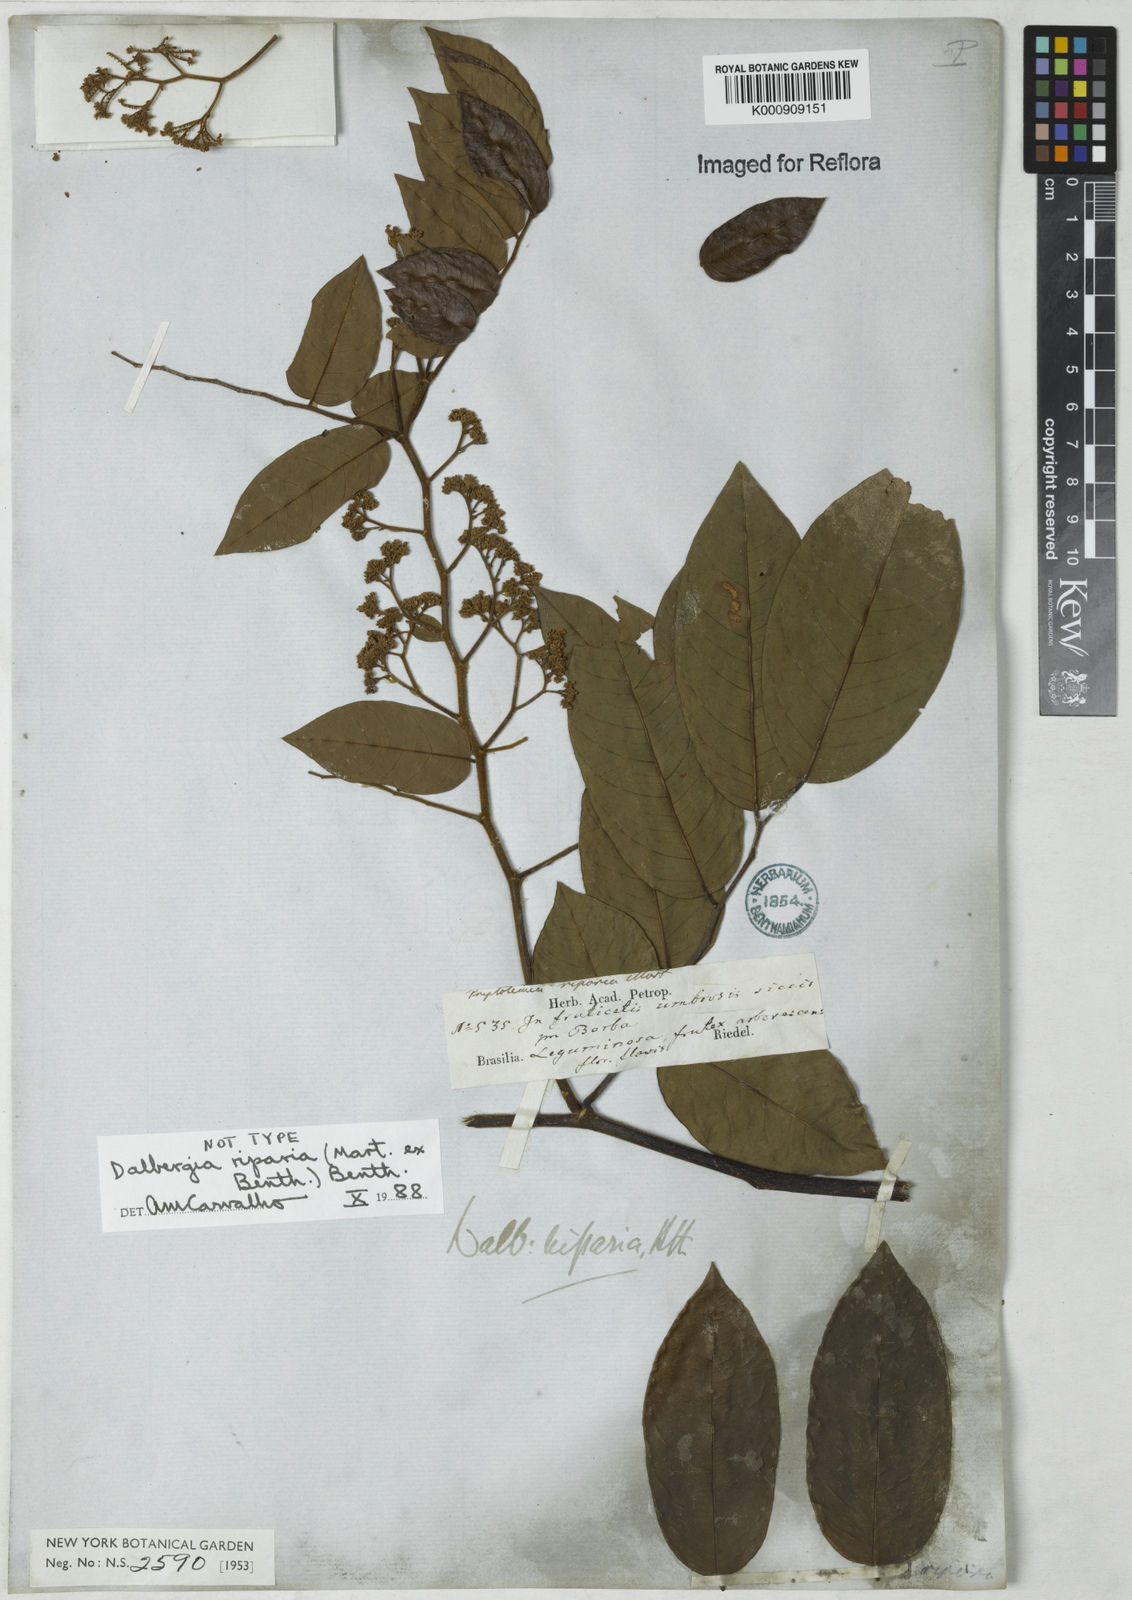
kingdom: Plantae
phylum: Tracheophyta
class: Magnoliopsida
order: Fabales
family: Fabaceae
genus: Dalbergia
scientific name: Dalbergia riparia
